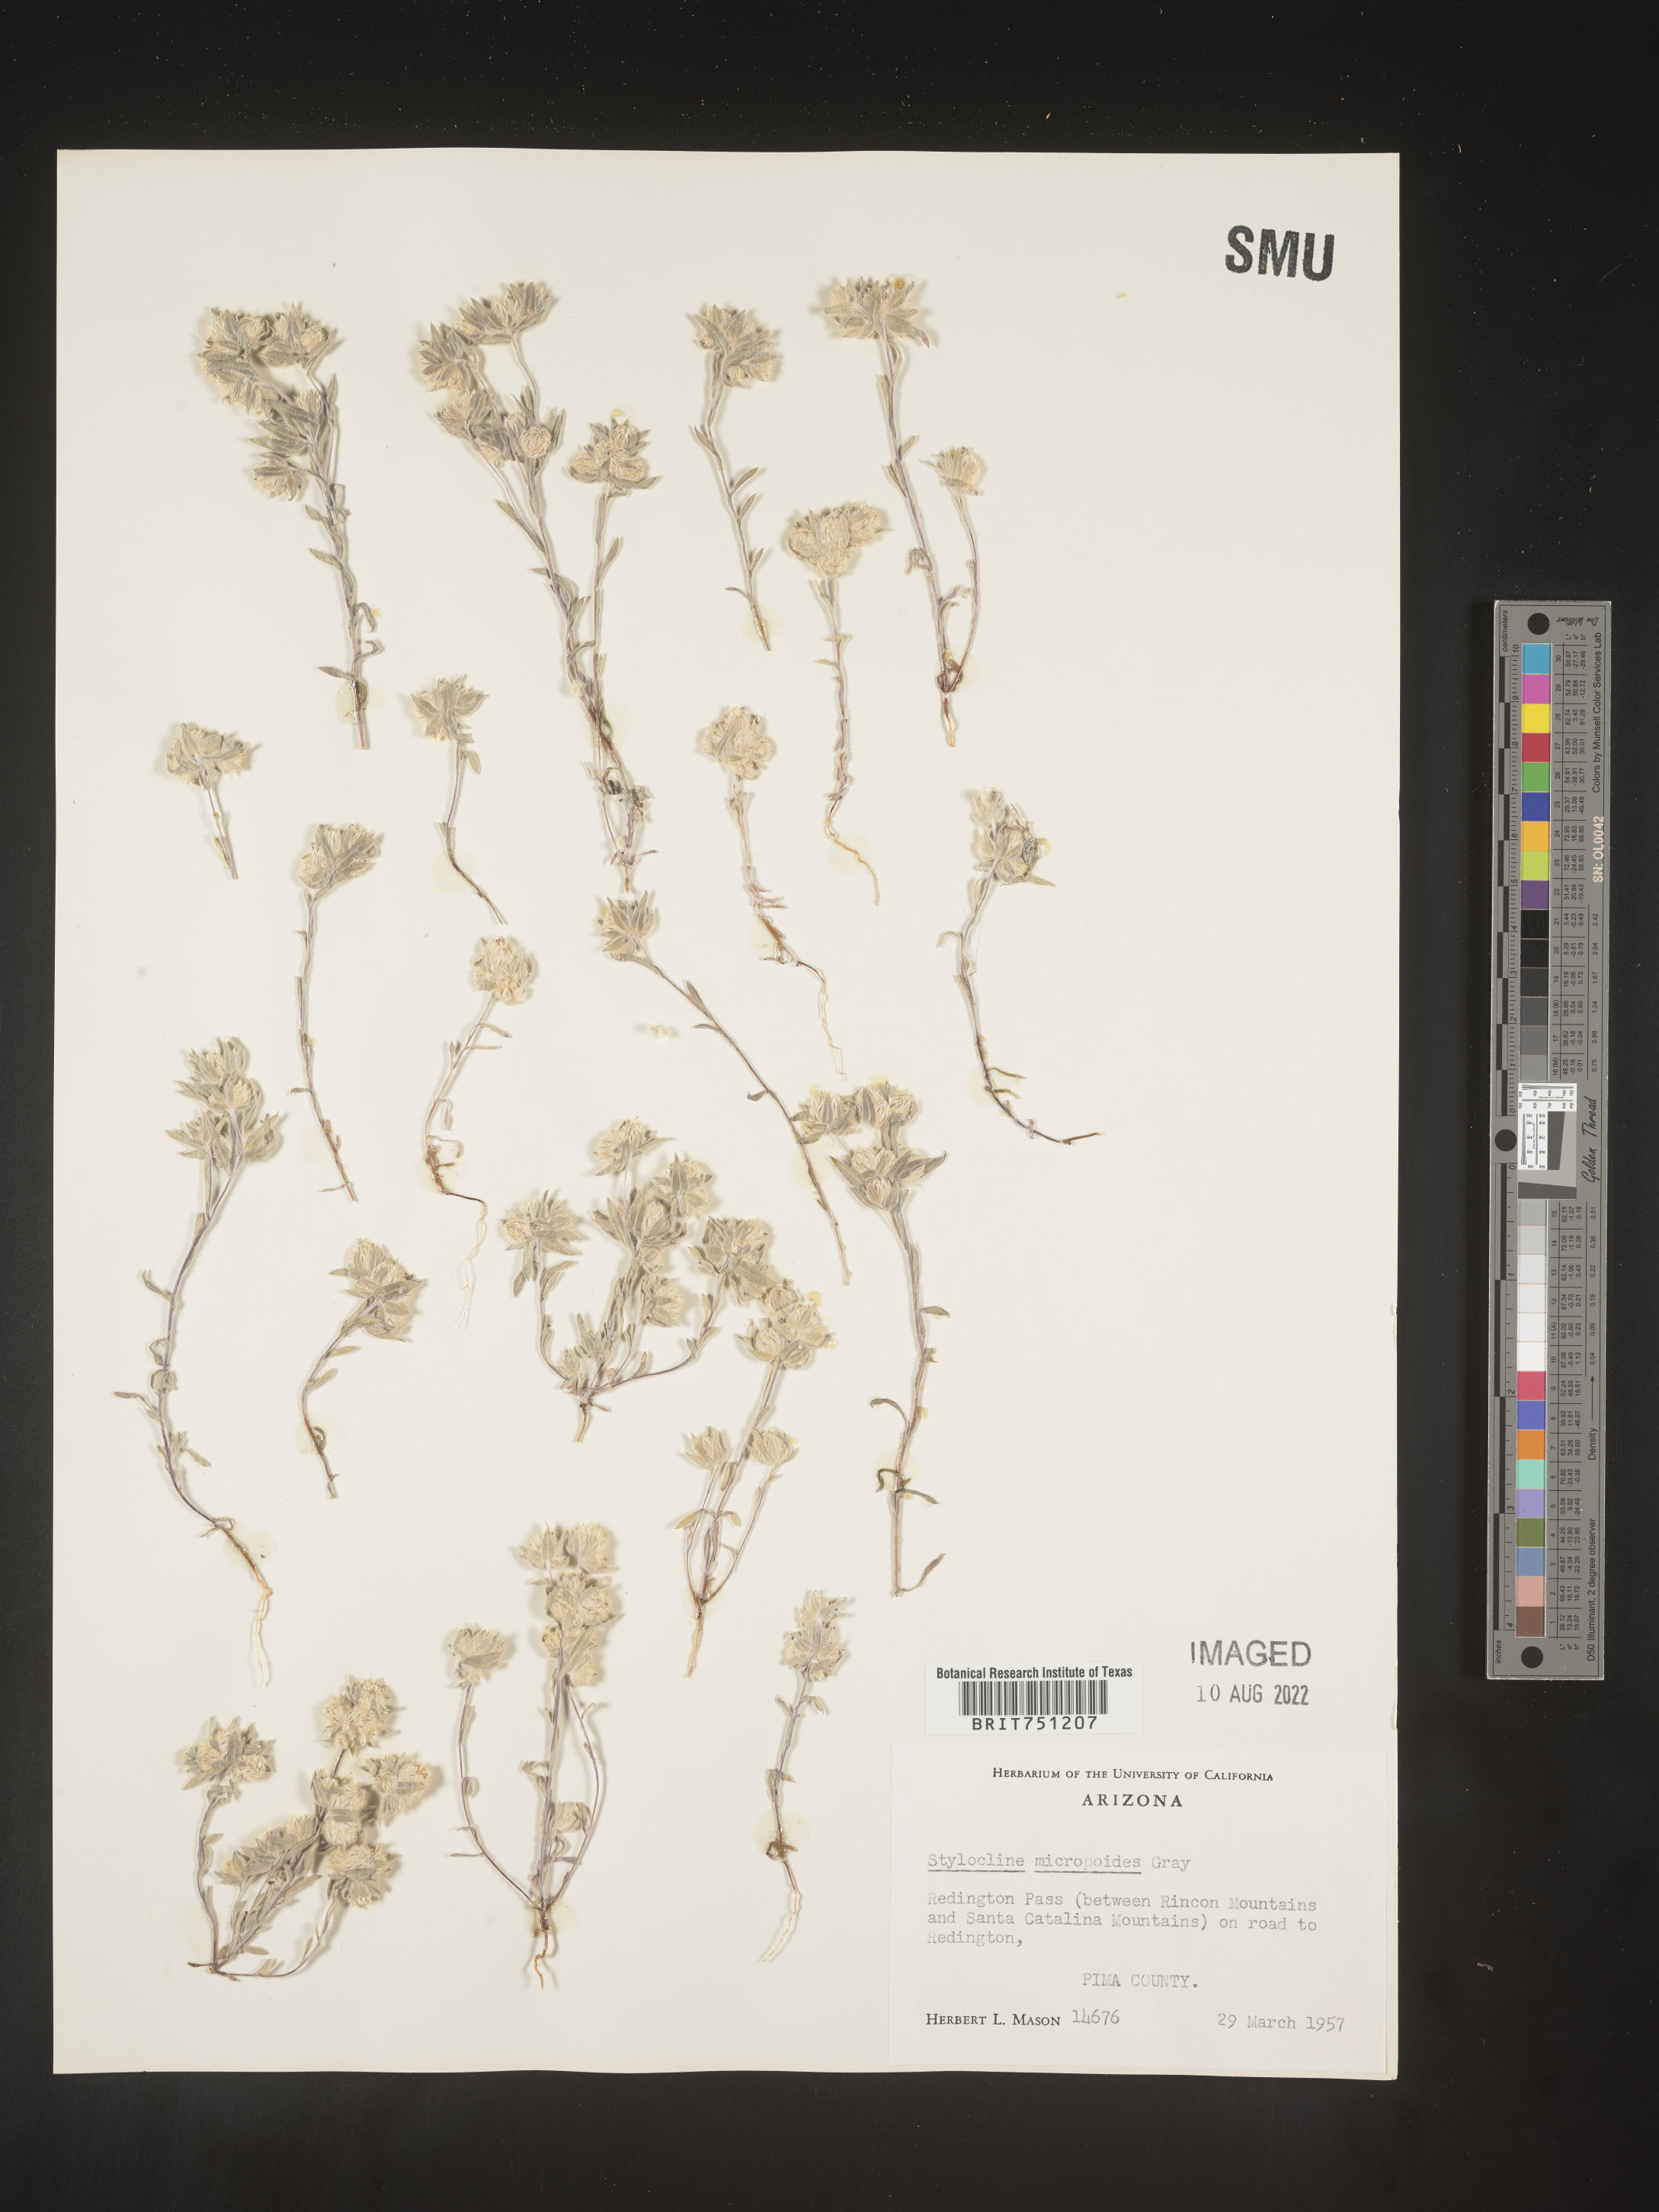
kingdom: Plantae
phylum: Tracheophyta
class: Magnoliopsida
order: Asterales
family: Asteraceae
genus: Stylocline
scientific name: Stylocline
